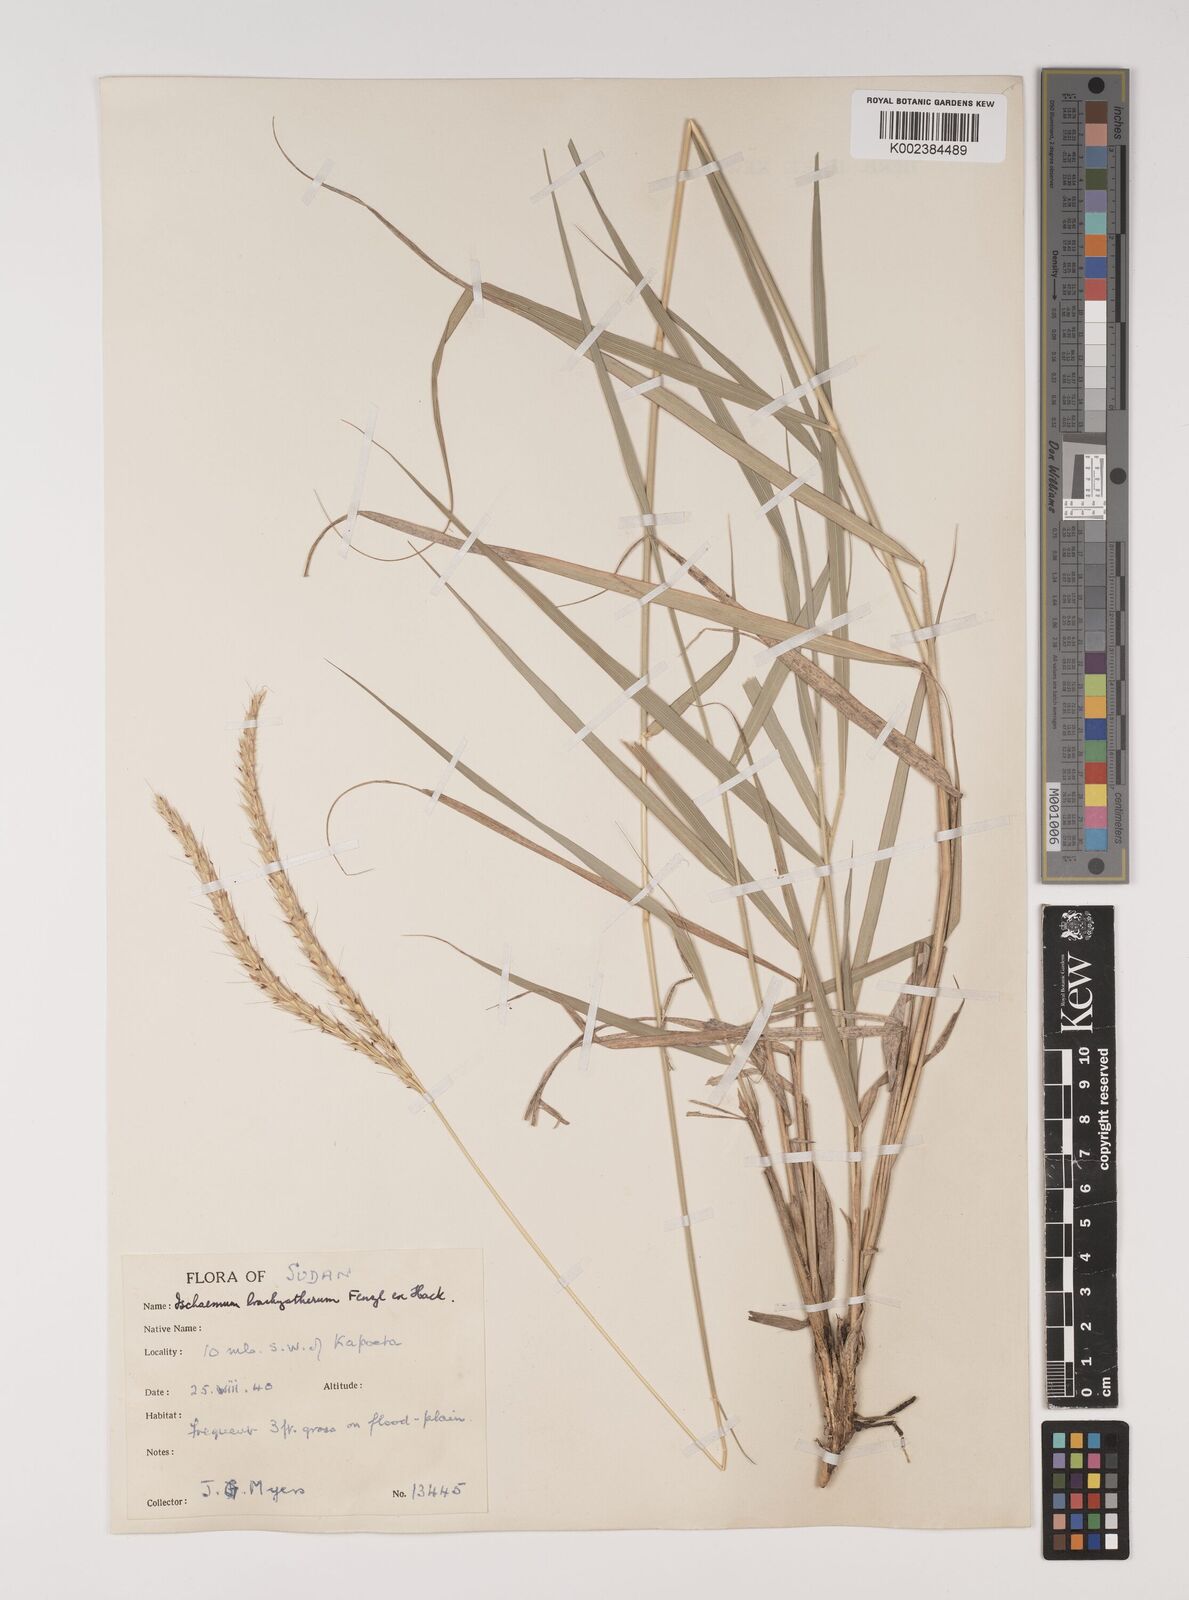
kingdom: Plantae
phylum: Tracheophyta
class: Liliopsida
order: Poales
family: Poaceae
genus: Ischaemum
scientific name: Ischaemum afrum
